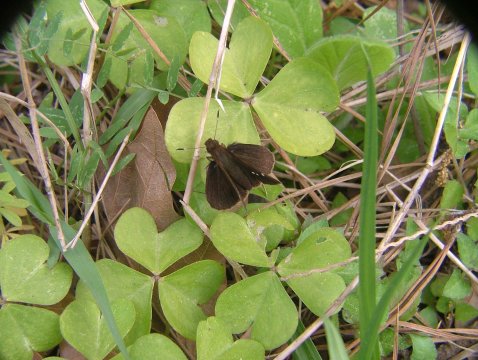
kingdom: Animalia
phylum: Arthropoda
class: Insecta
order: Lepidoptera
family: Hesperiidae
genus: Vernia
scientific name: Vernia verna
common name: Little Glassywing
